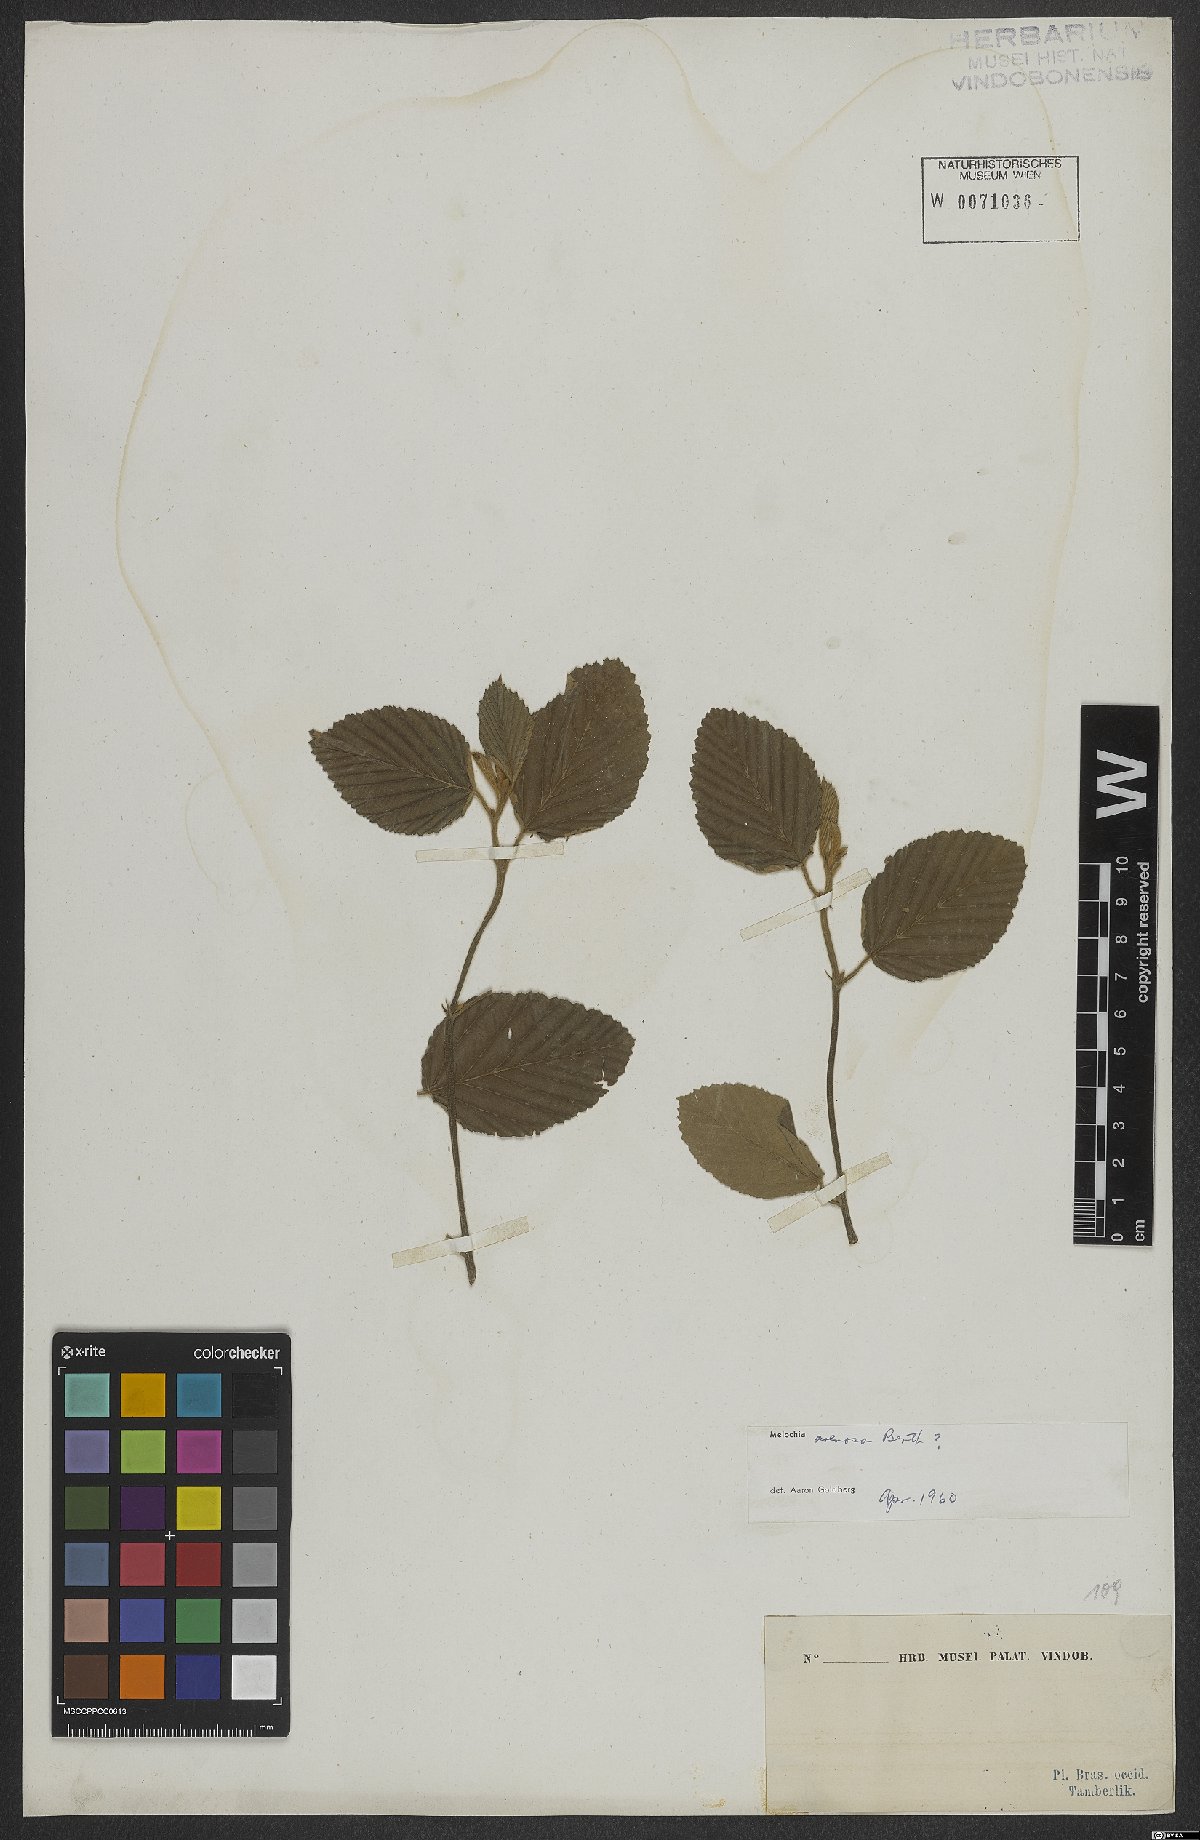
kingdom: Plantae
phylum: Tracheophyta
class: Magnoliopsida
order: Malvales
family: Malvaceae
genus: Melochia
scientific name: Melochia arenosa
